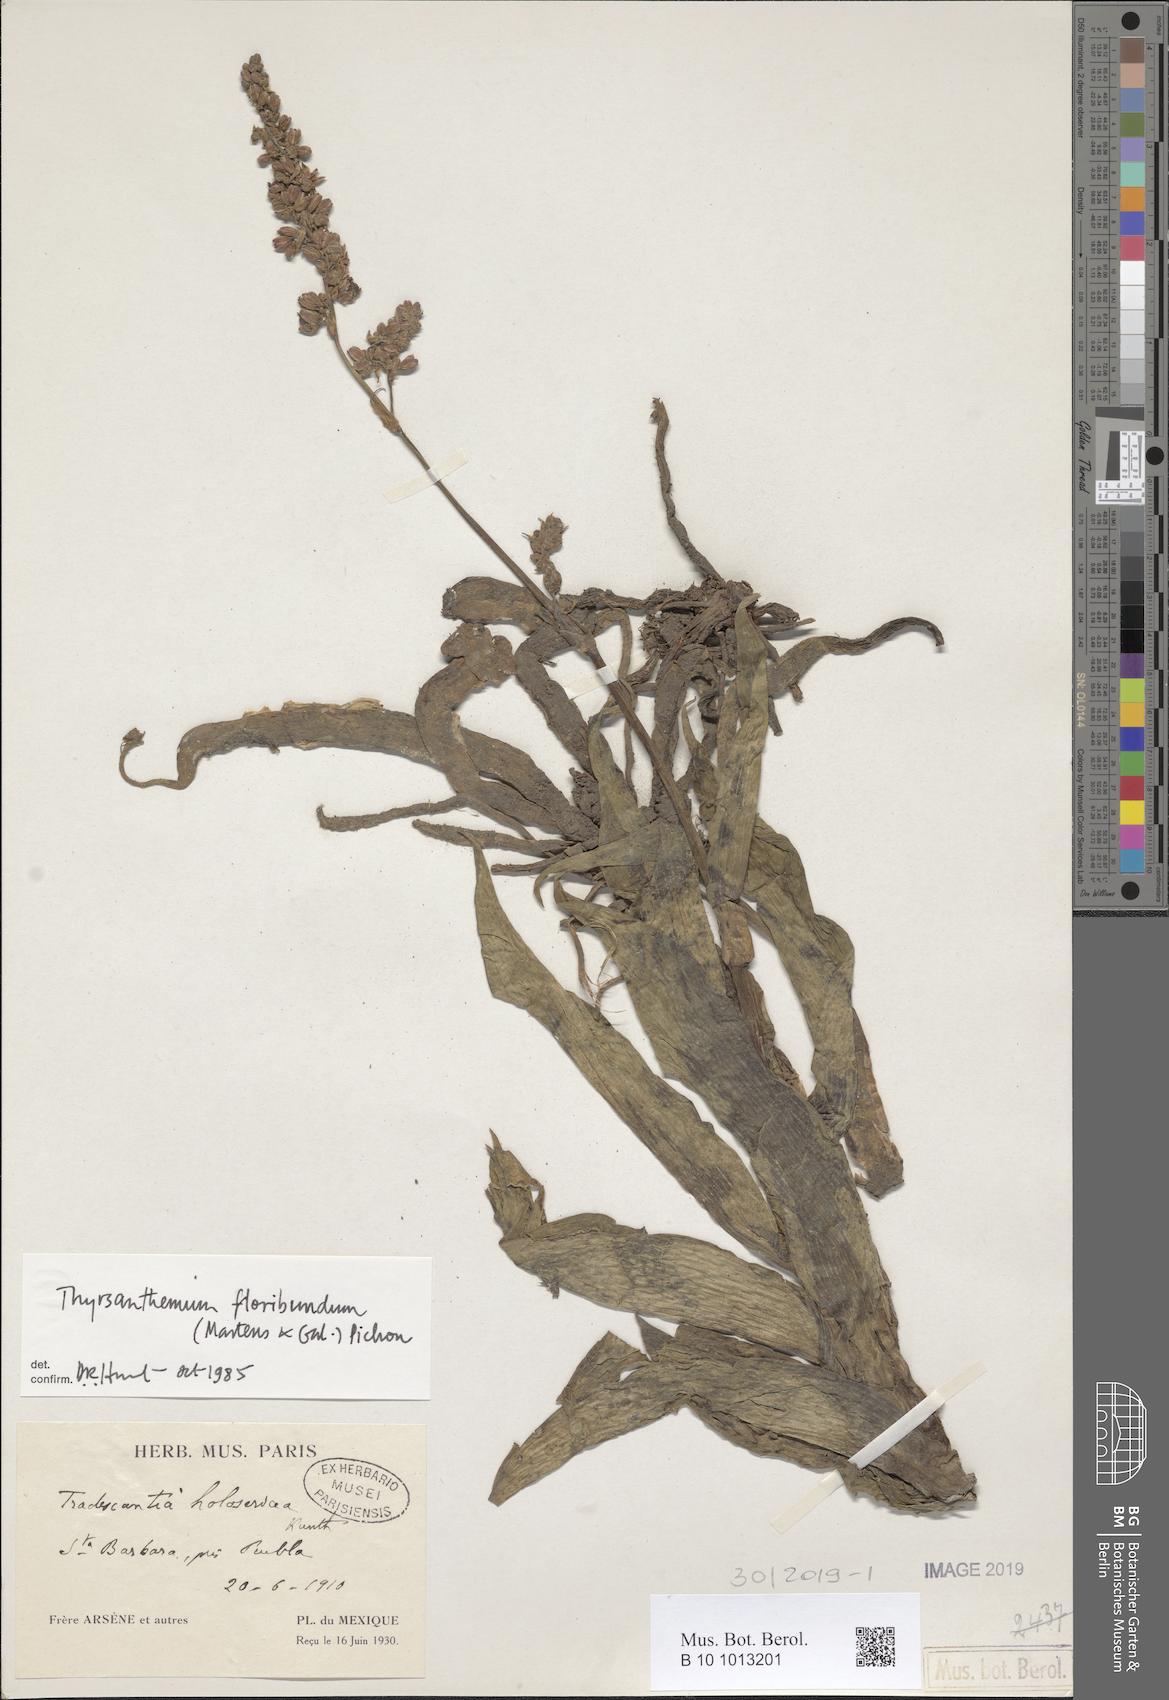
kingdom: Plantae
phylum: Tracheophyta
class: Liliopsida
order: Commelinales
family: Commelinaceae
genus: Thyrsanthemum
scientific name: Thyrsanthemum floribundum
